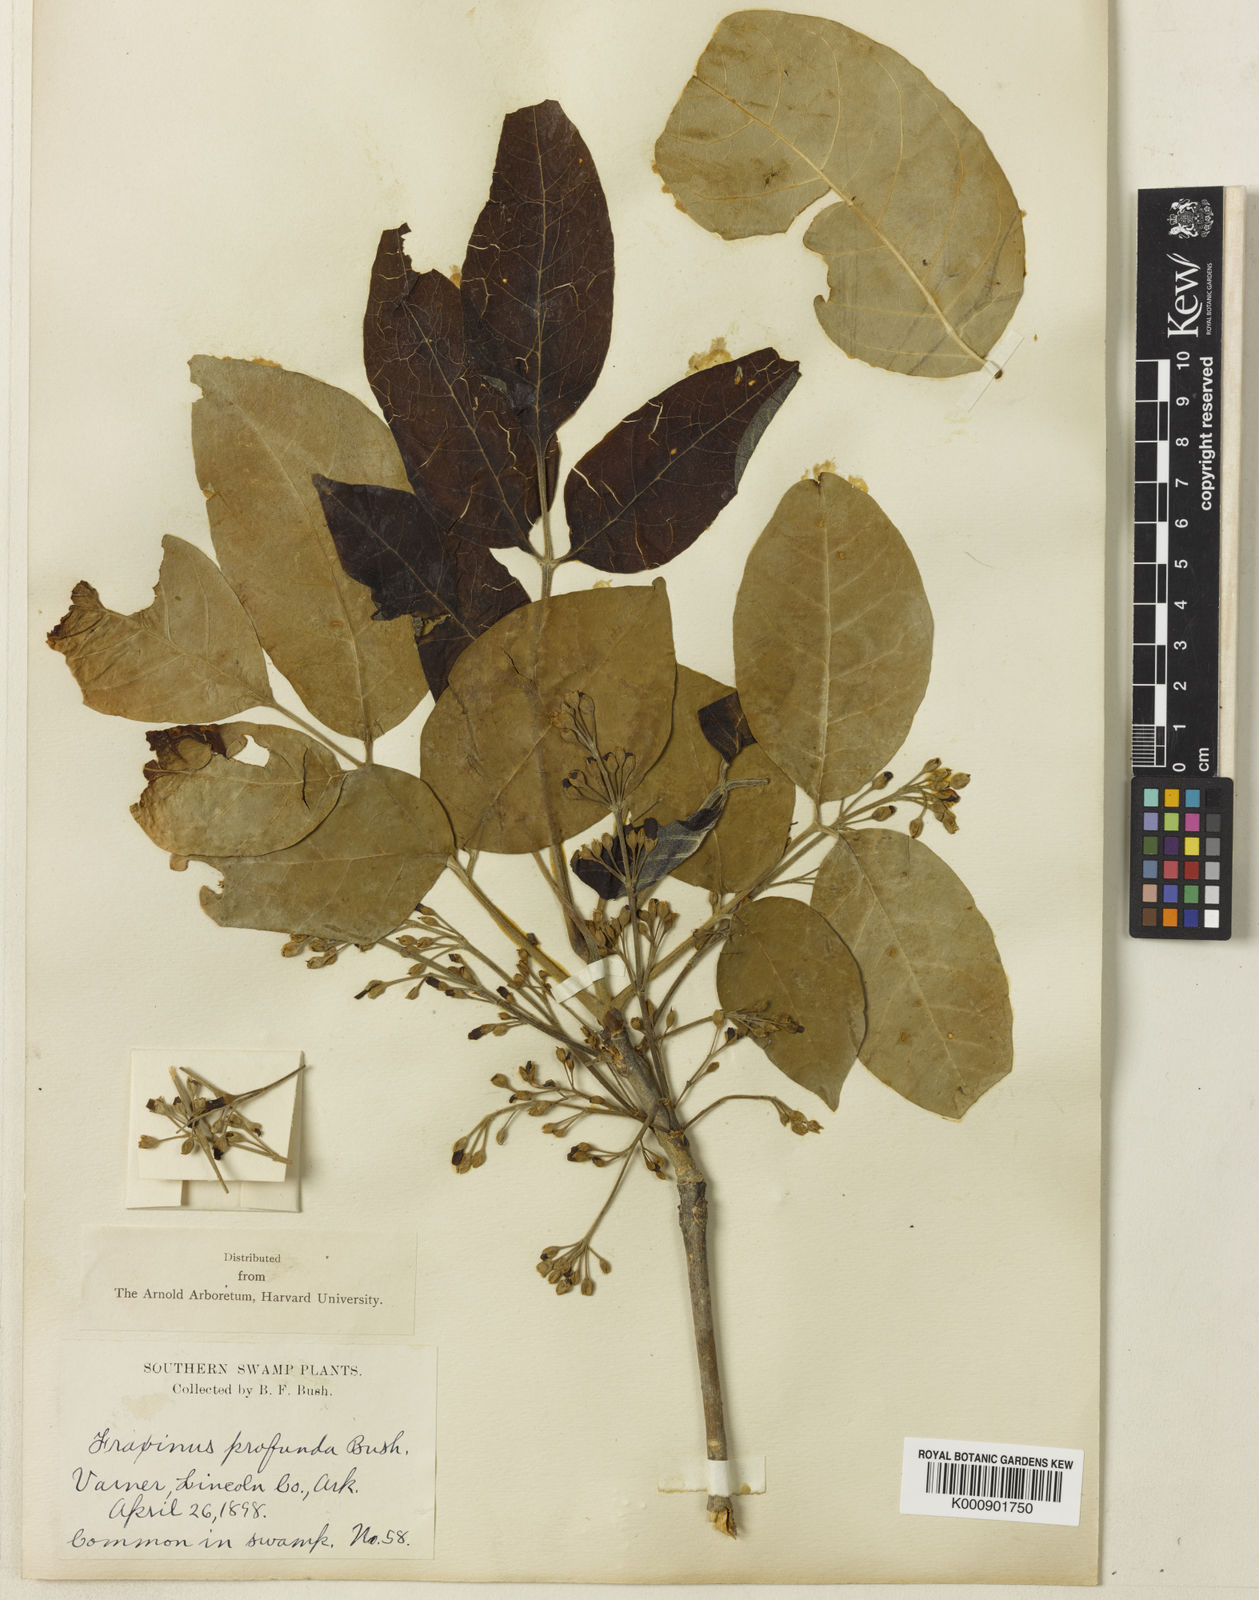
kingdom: Plantae
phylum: Tracheophyta
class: Magnoliopsida
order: Lamiales
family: Oleaceae
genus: Fraxinus
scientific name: Fraxinus
